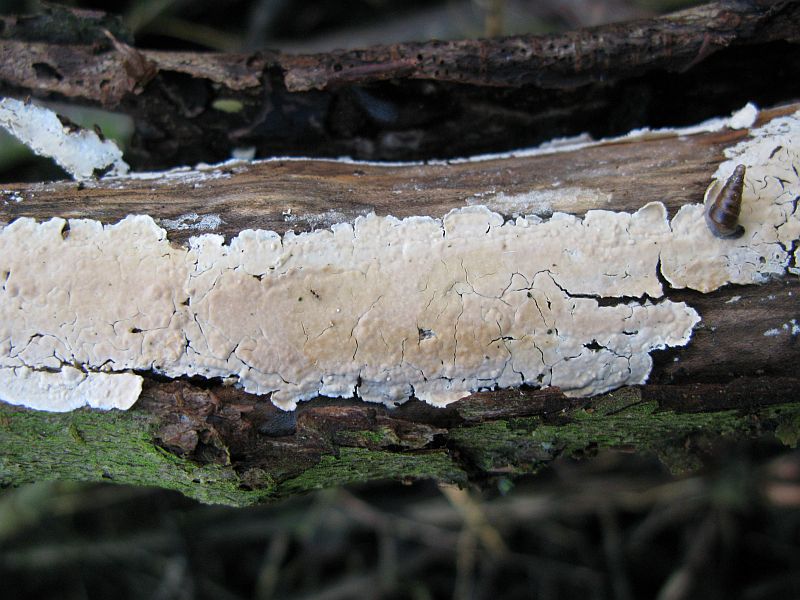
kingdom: Fungi
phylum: Basidiomycota
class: Agaricomycetes
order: Agaricales
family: Physalacriaceae
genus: Cylindrobasidium
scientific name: Cylindrobasidium evolvens
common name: sprækkehinde
